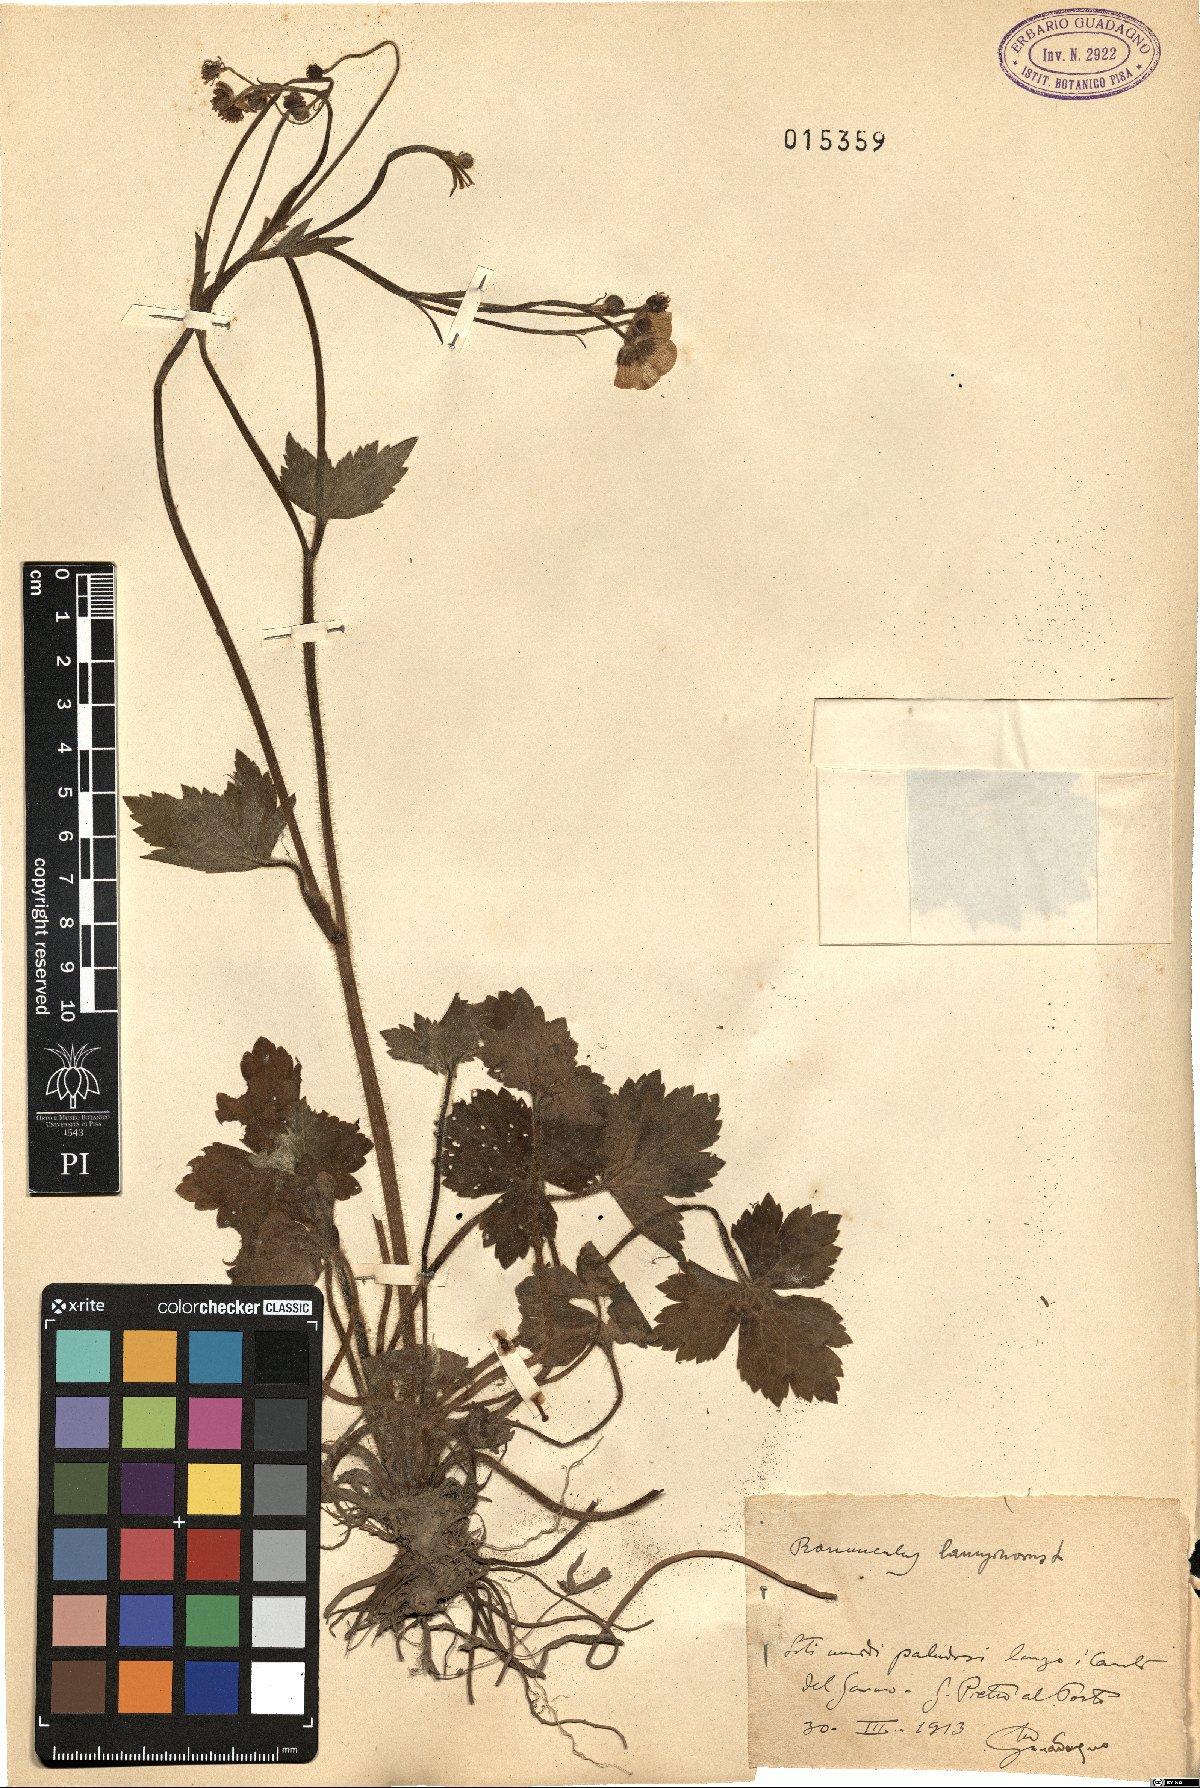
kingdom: Plantae
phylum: Tracheophyta
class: Magnoliopsida
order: Ranunculales
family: Ranunculaceae
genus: Ranunculus
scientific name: Ranunculus lanuginosus
